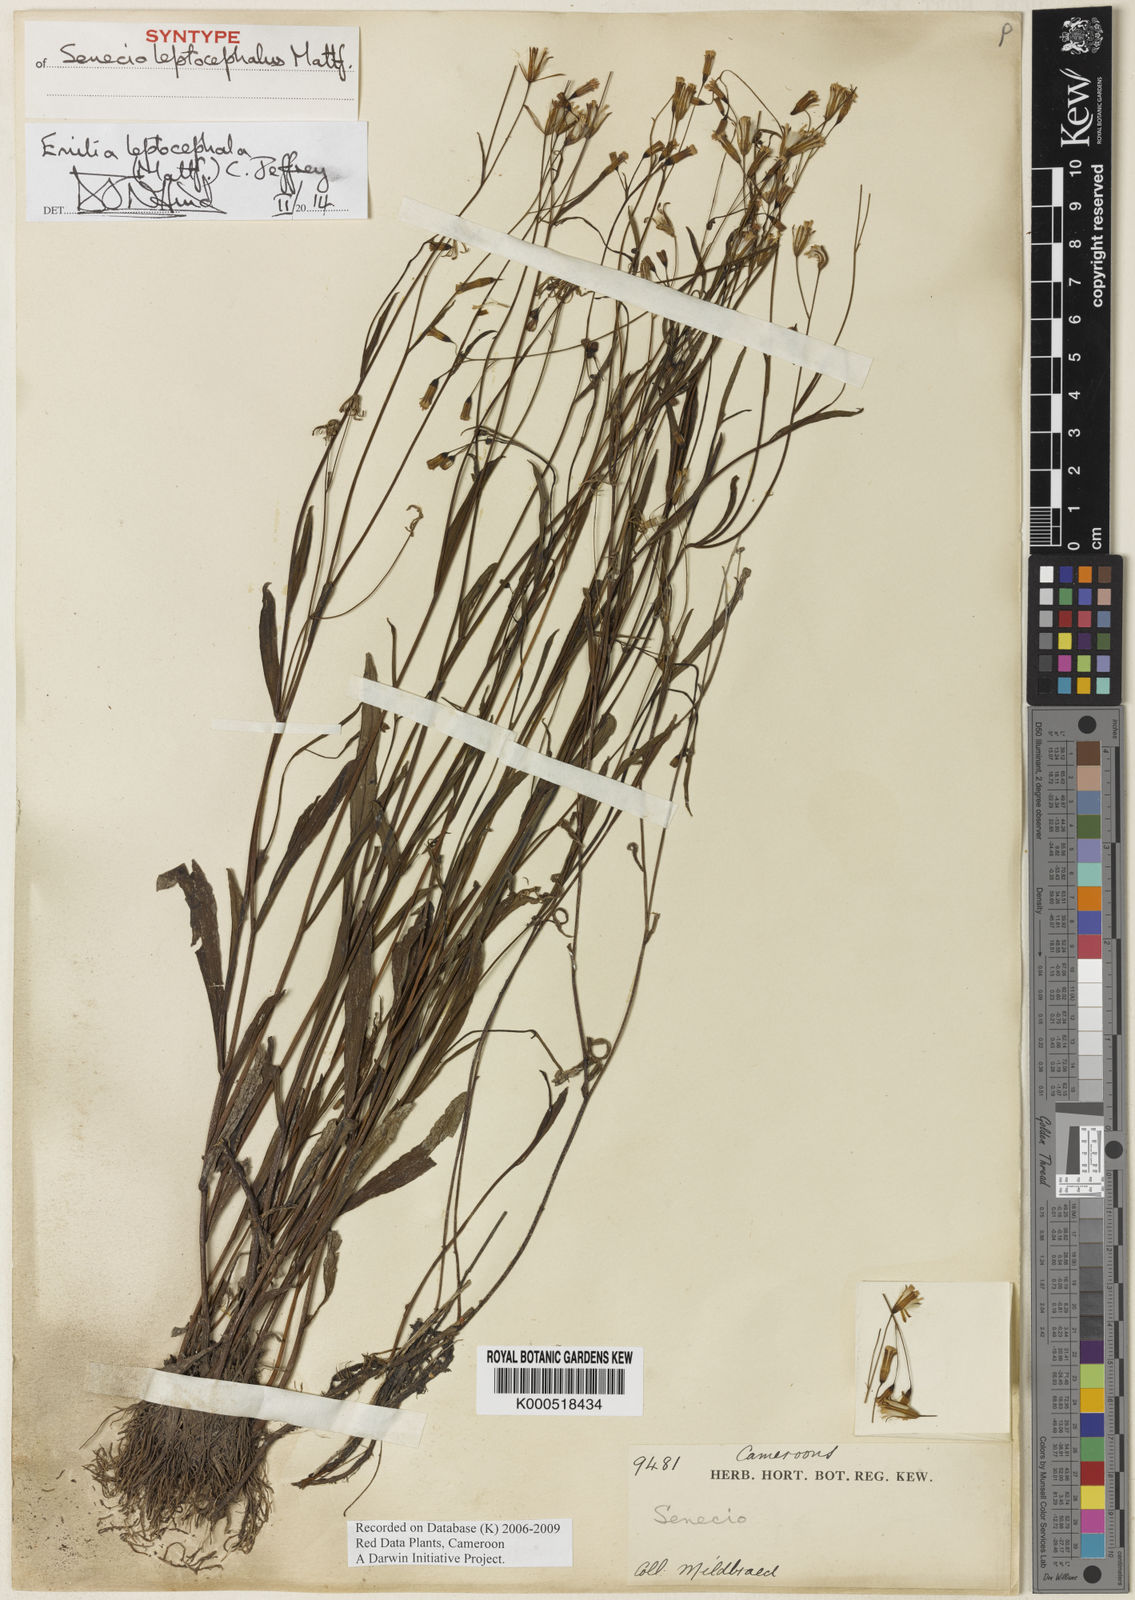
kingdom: Plantae
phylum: Tracheophyta
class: Magnoliopsida
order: Asterales
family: Asteraceae
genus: Emilia
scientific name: Emilia leptocephala
